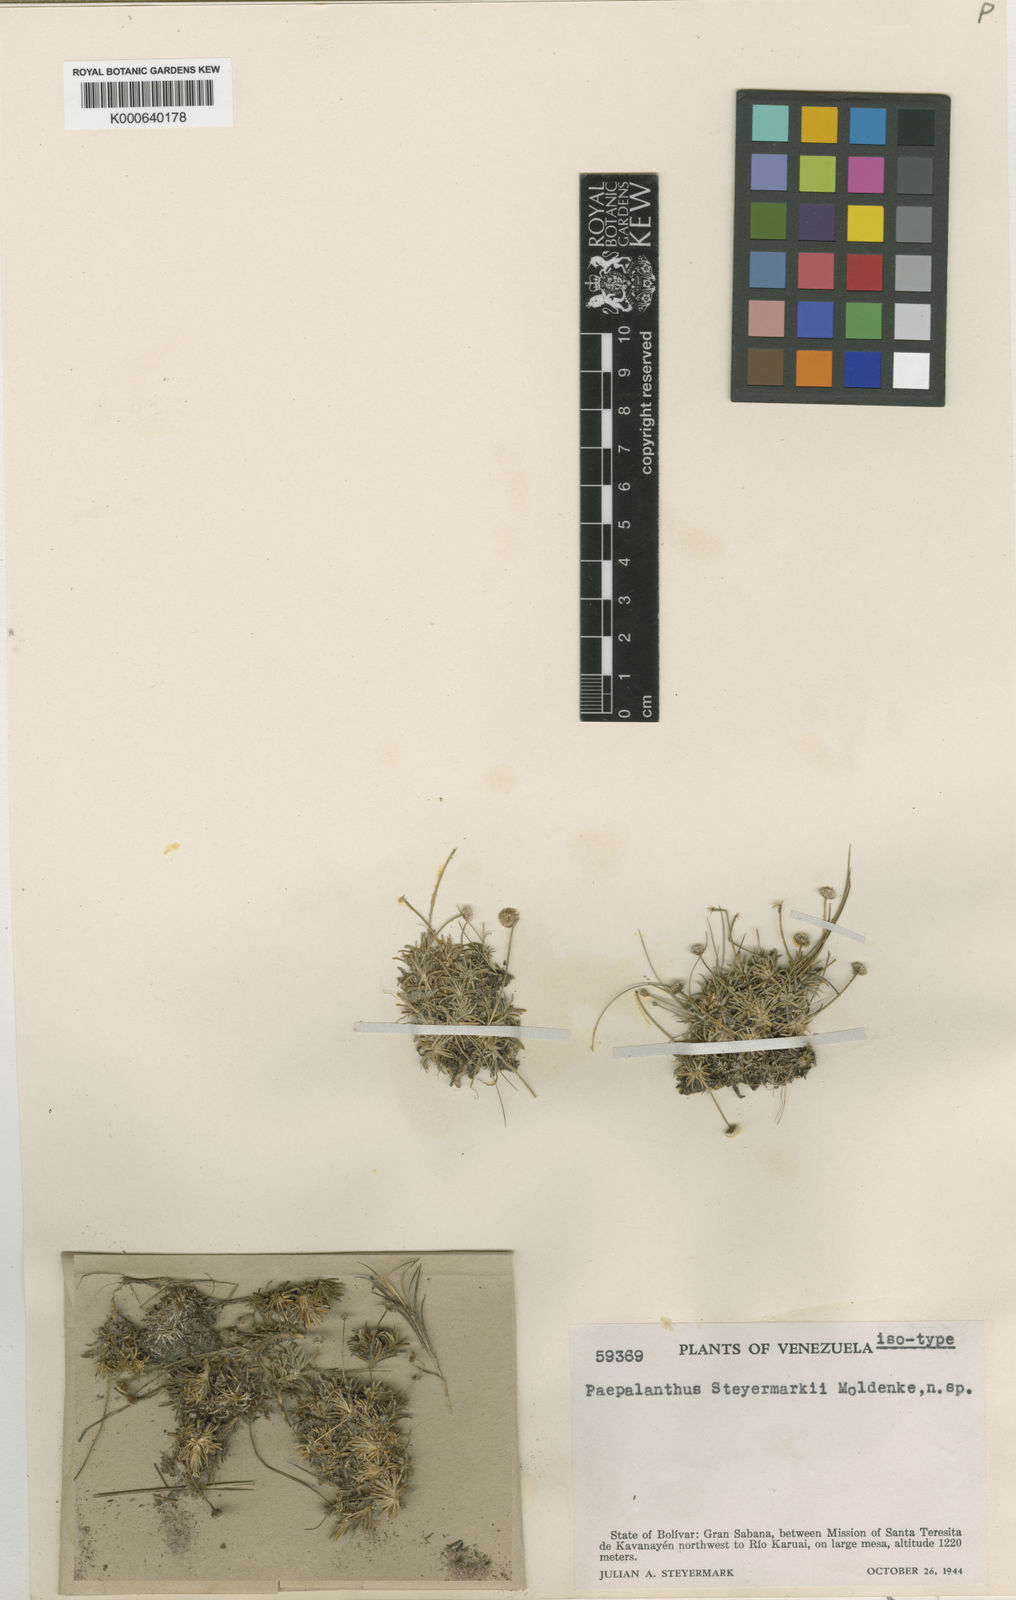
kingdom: Plantae
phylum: Tracheophyta
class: Liliopsida
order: Poales
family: Eriocaulaceae
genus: Paepalanthus
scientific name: Paepalanthus
